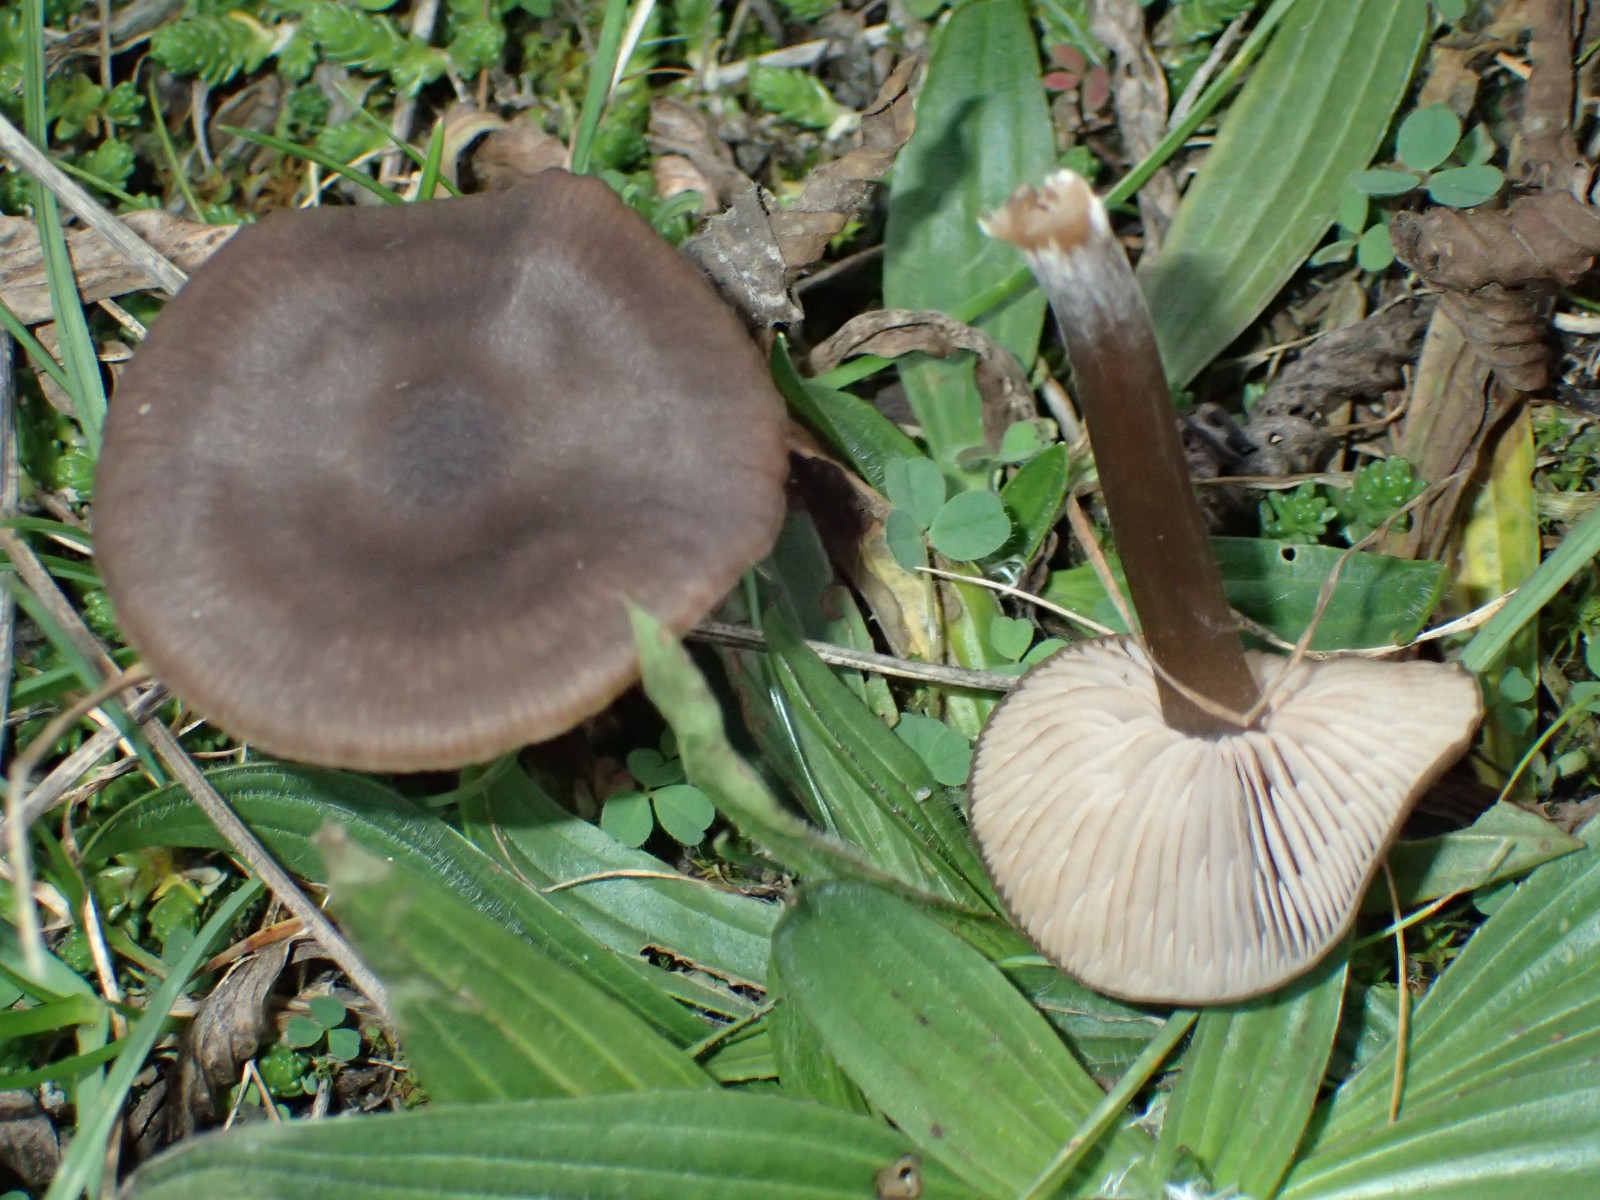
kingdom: Fungi
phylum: Basidiomycota
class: Agaricomycetes
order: Agaricales
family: Entolomataceae
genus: Entoloma
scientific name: Entoloma
